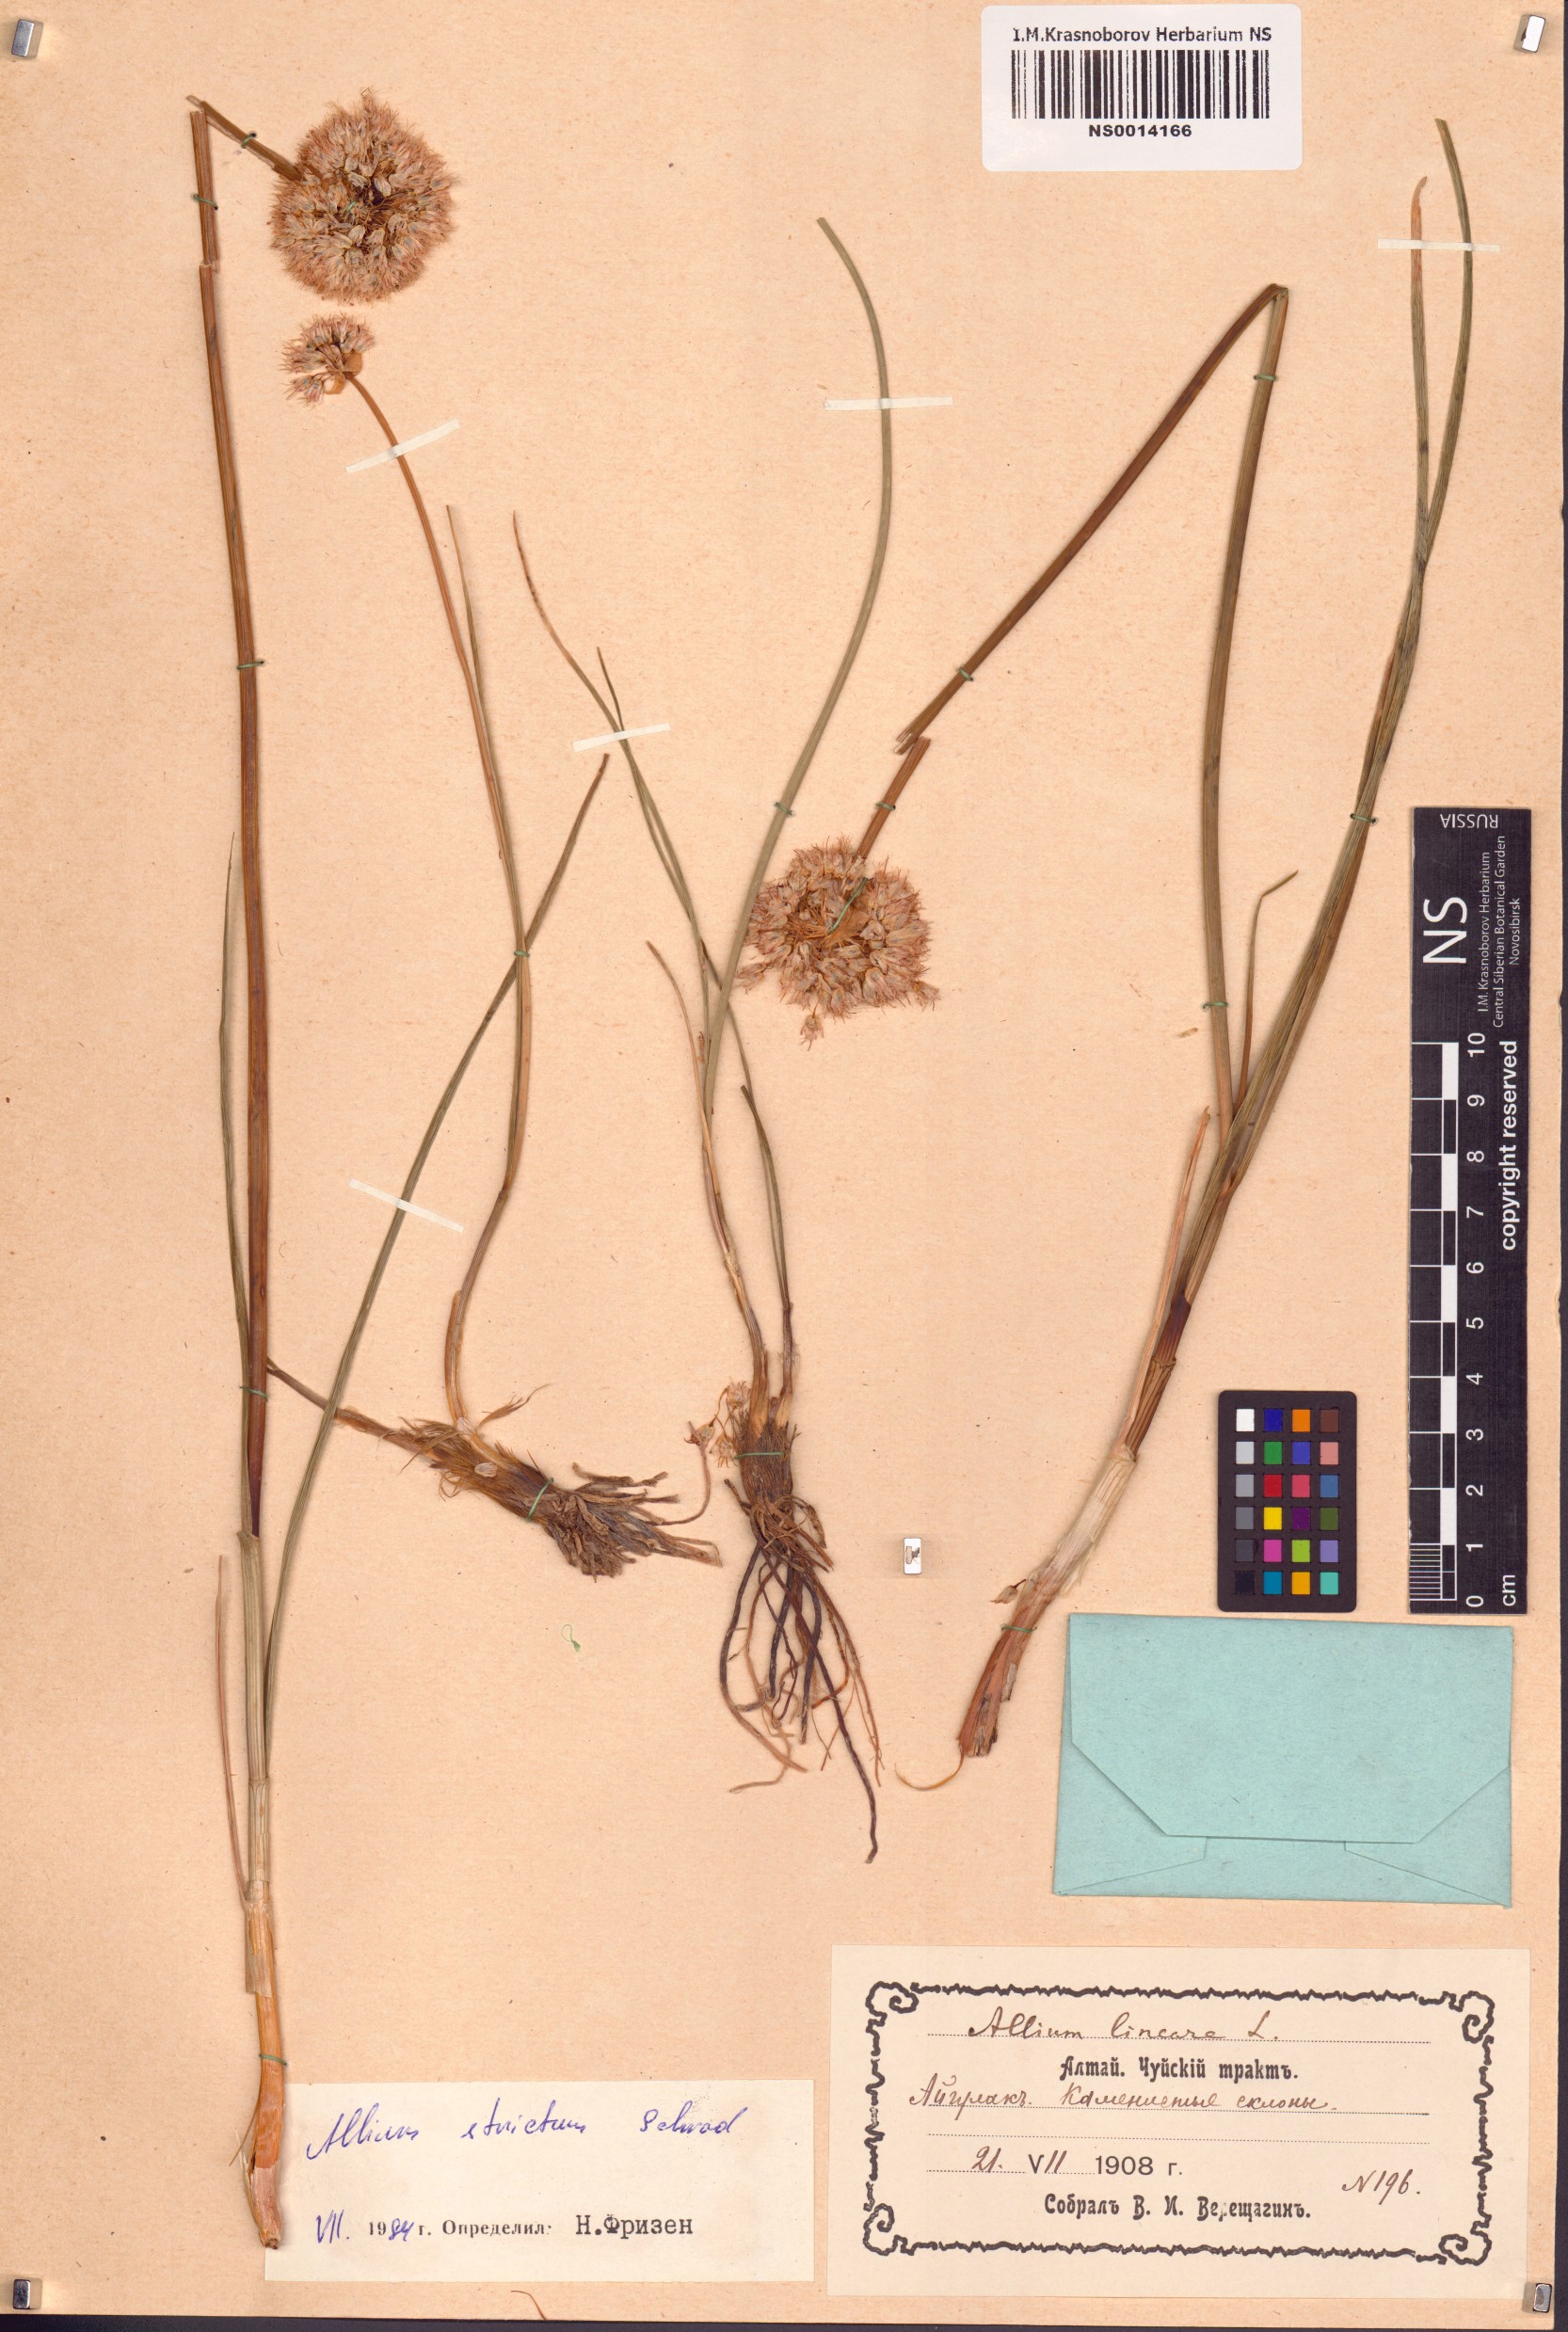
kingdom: Plantae
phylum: Tracheophyta
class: Liliopsida
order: Asparagales
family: Amaryllidaceae
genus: Allium
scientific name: Allium strictum
